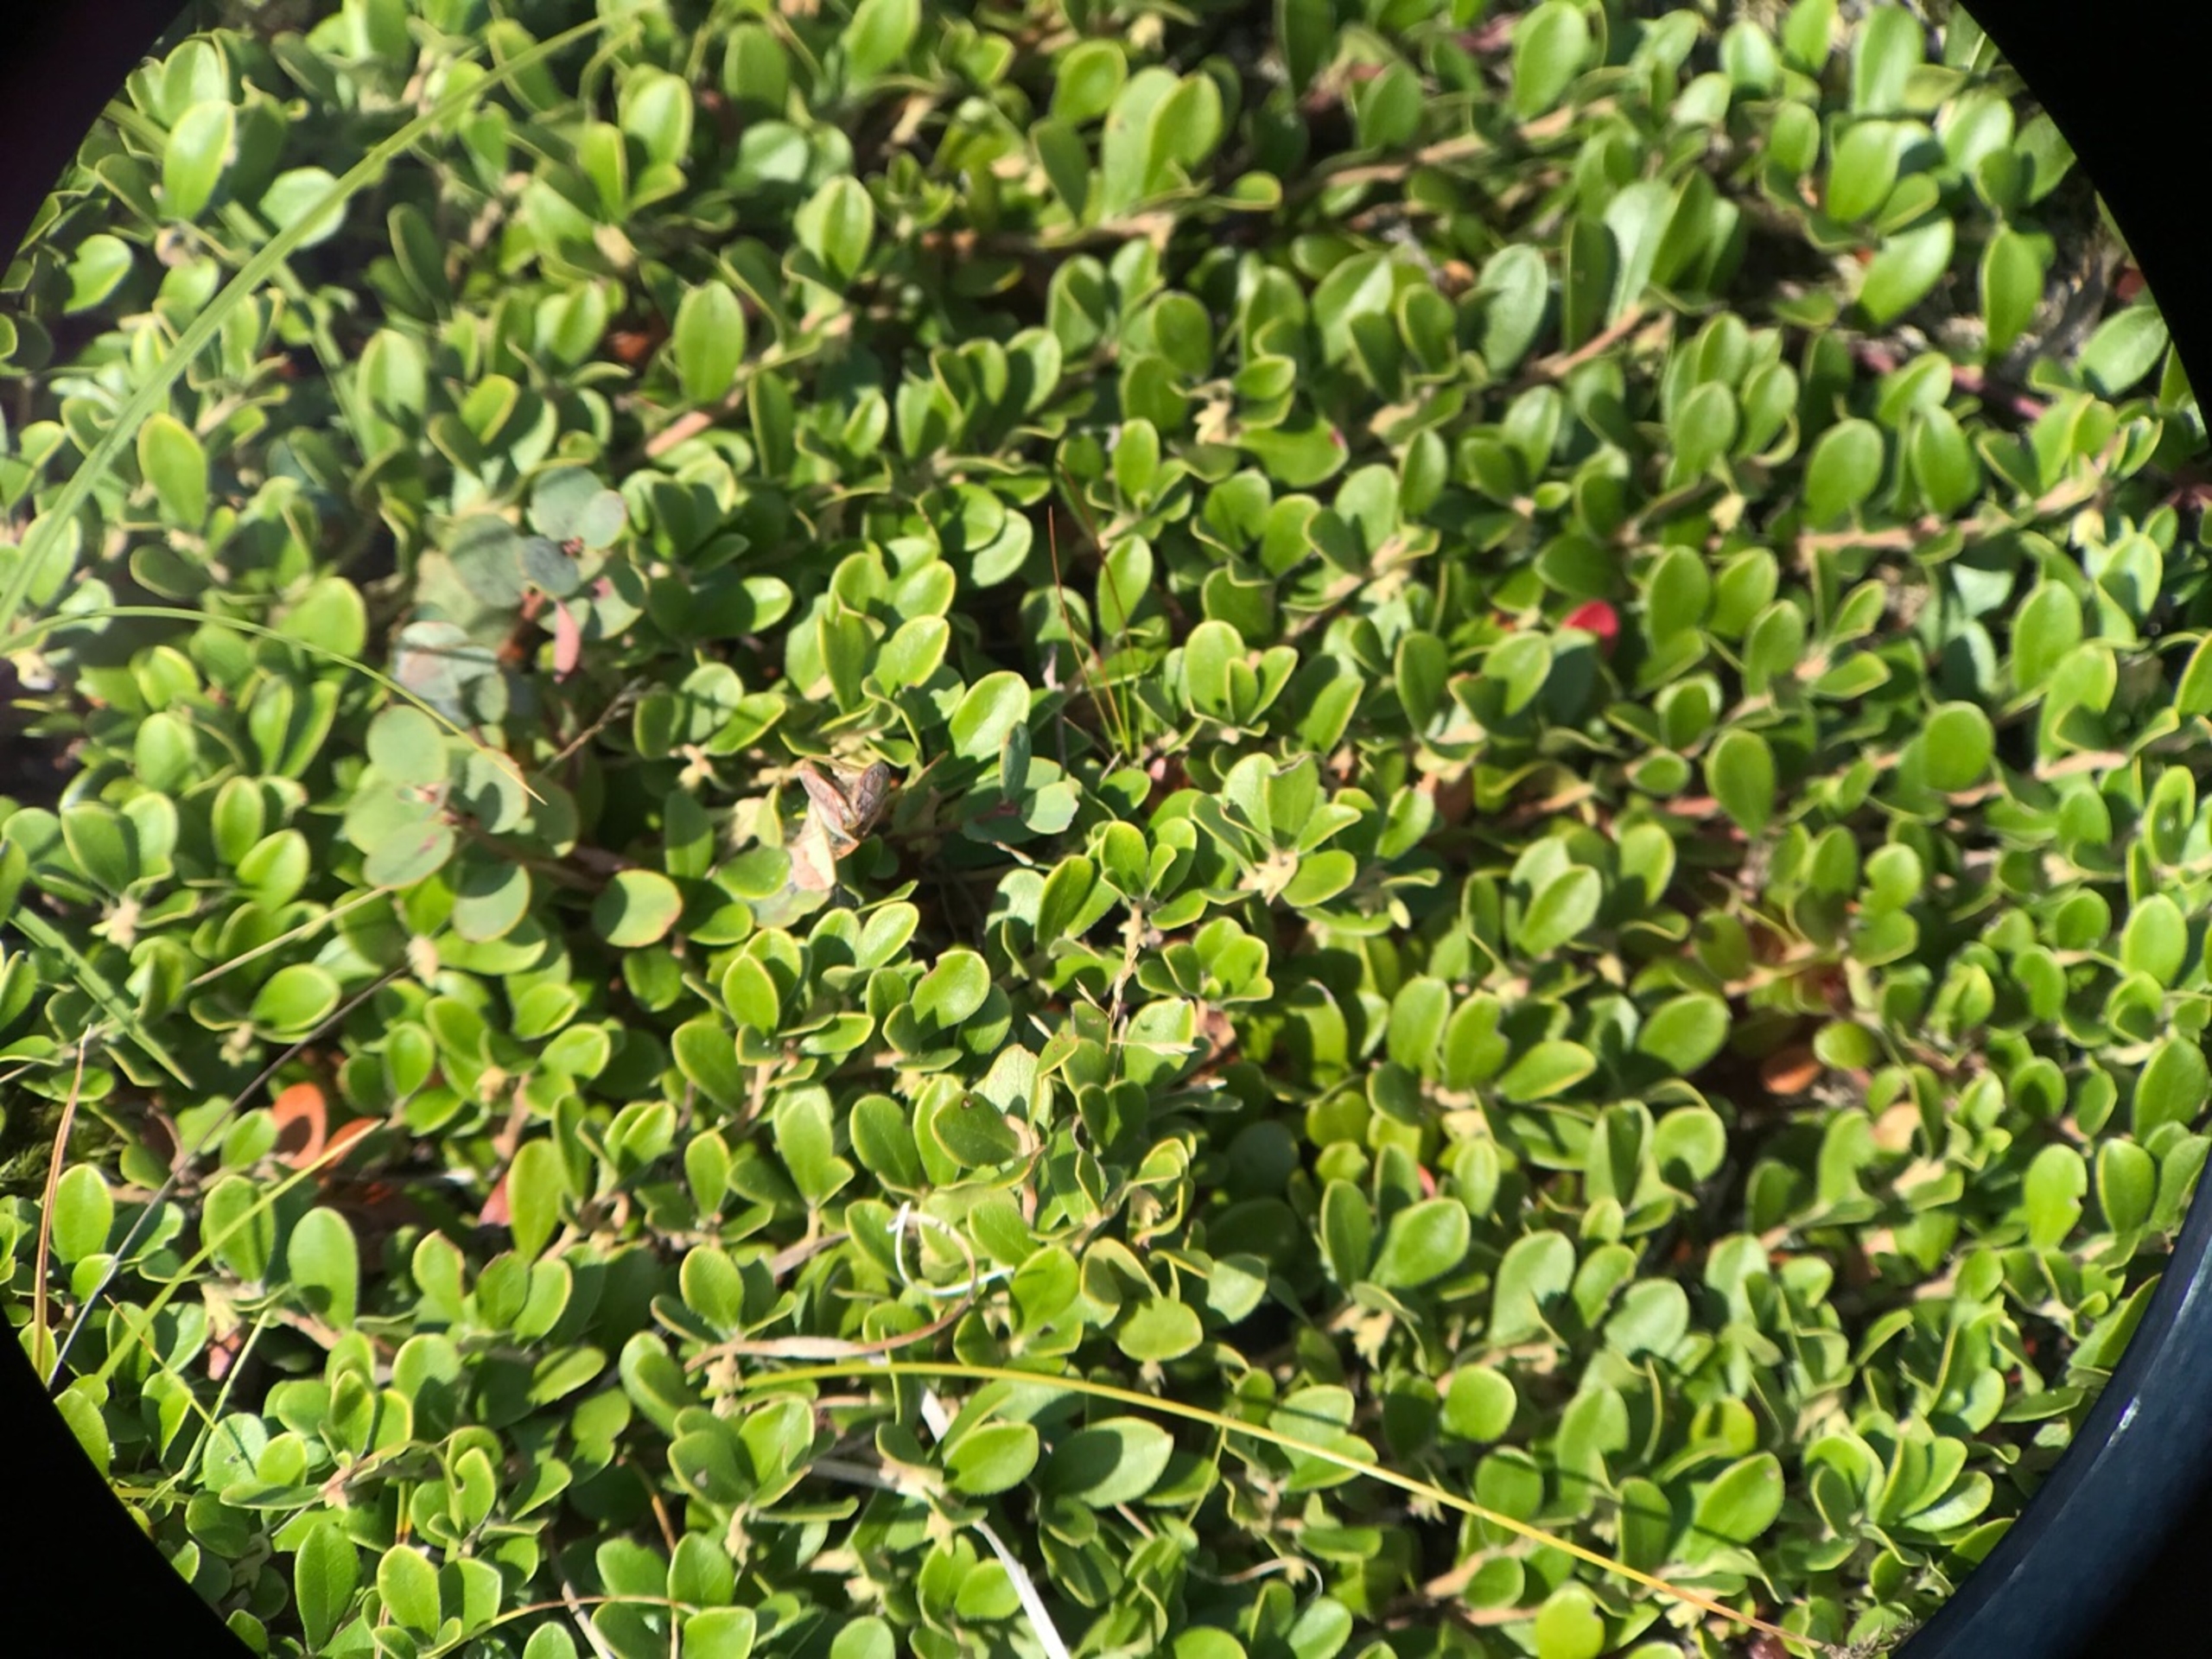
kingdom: Plantae
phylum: Tracheophyta
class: Magnoliopsida
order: Ericales
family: Ericaceae
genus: Arctostaphylos
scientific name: Arctostaphylos uva-ursi
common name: Hede-melbærris
